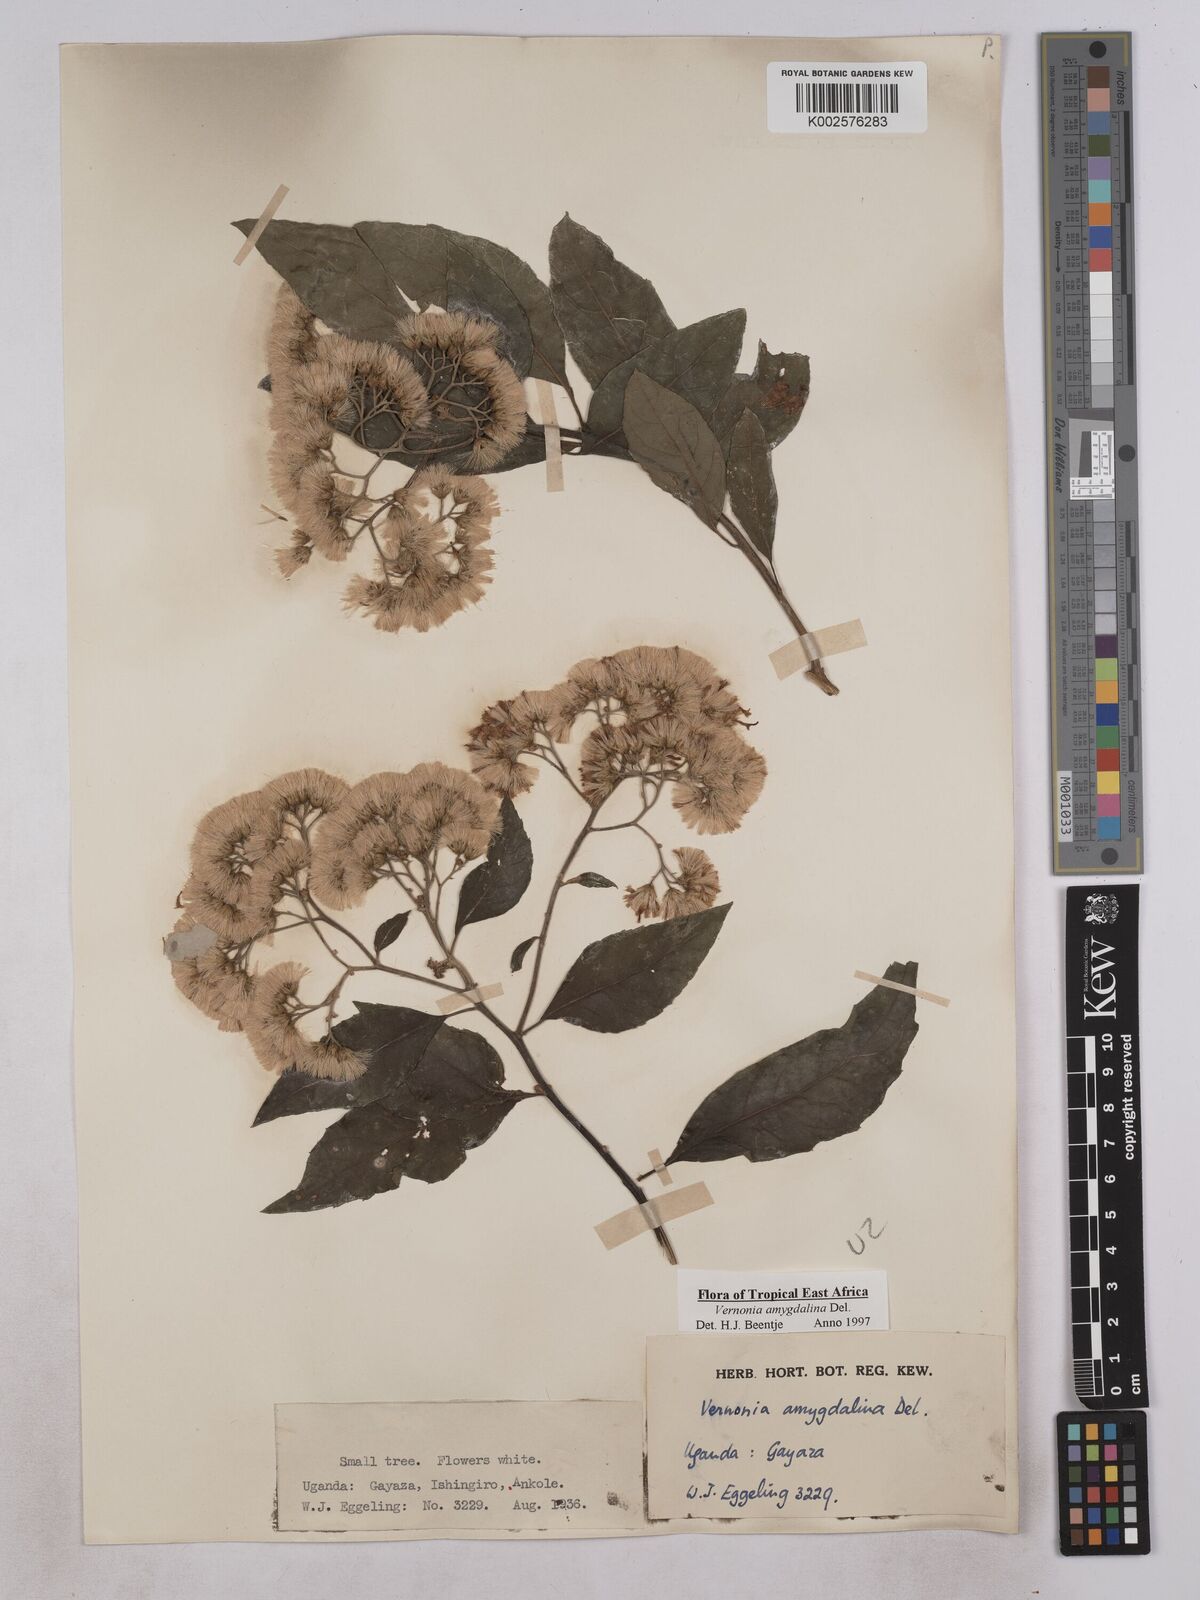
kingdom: Plantae
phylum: Tracheophyta
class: Magnoliopsida
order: Asterales
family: Asteraceae
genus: Gymnanthemum
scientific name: Gymnanthemum amygdalinum
